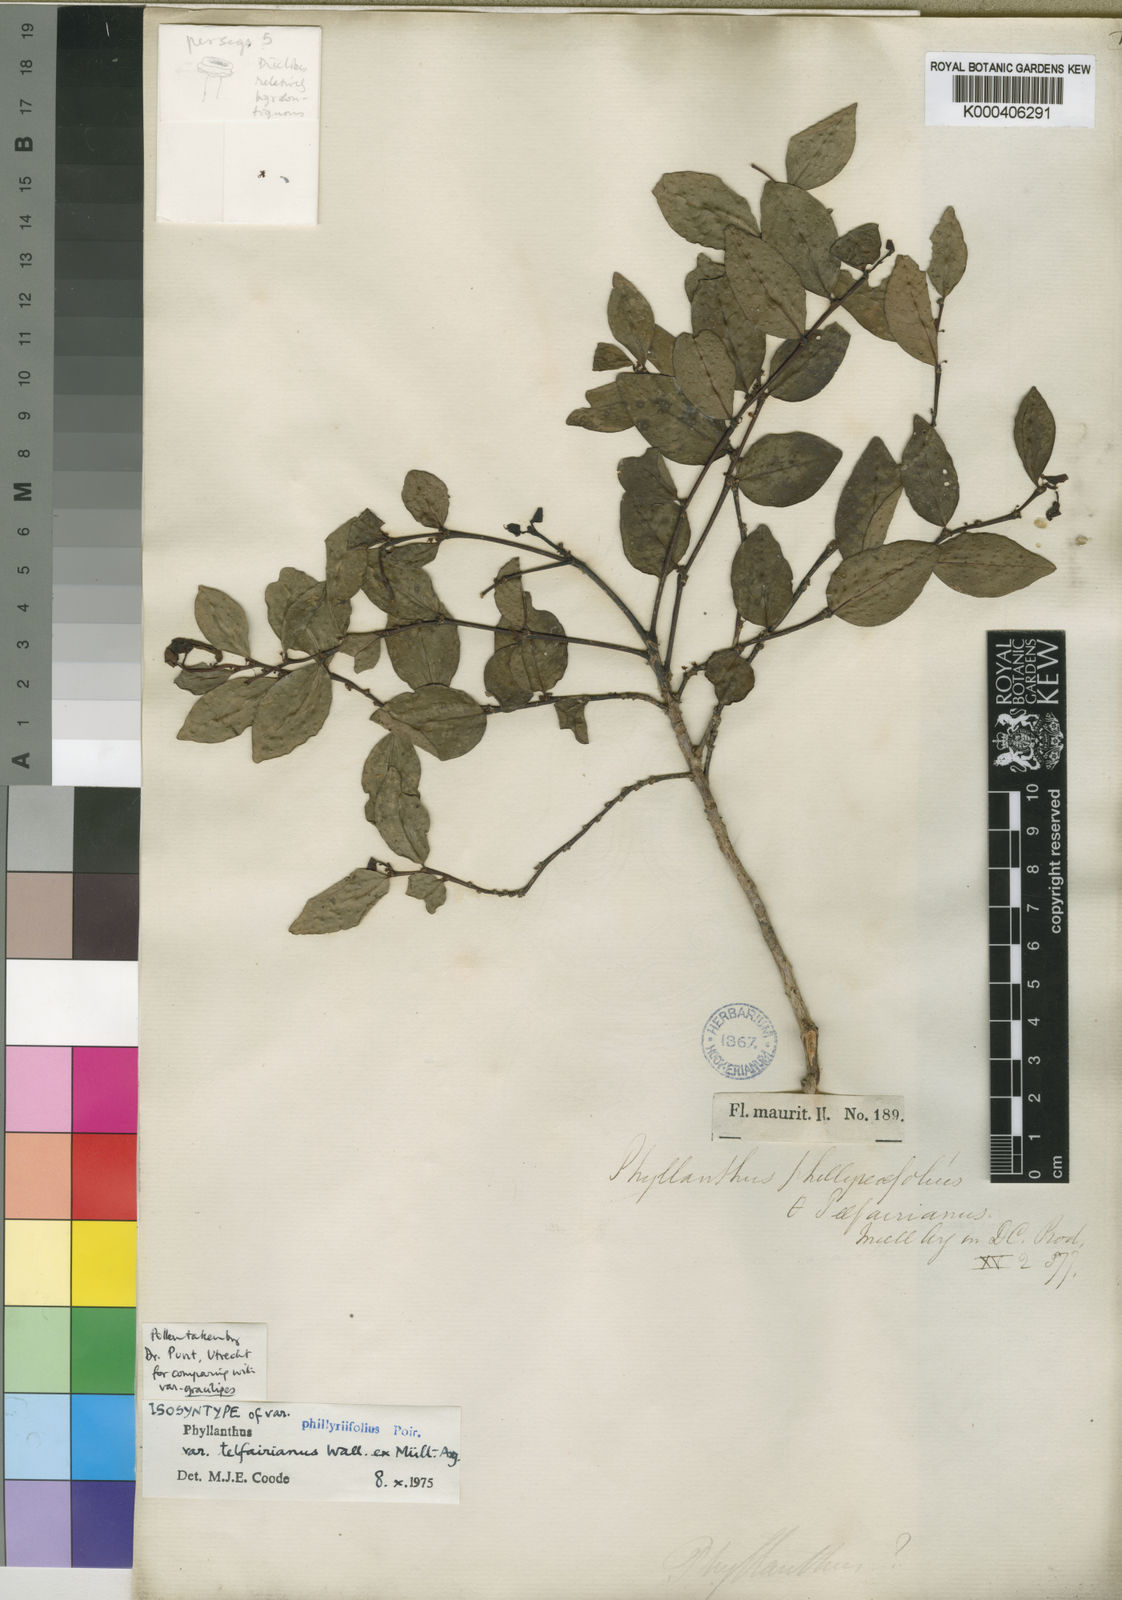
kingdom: Plantae
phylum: Tracheophyta
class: Magnoliopsida
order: Malpighiales
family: Phyllanthaceae
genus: Phyllanthus
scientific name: Phyllanthus phillyreifolius
